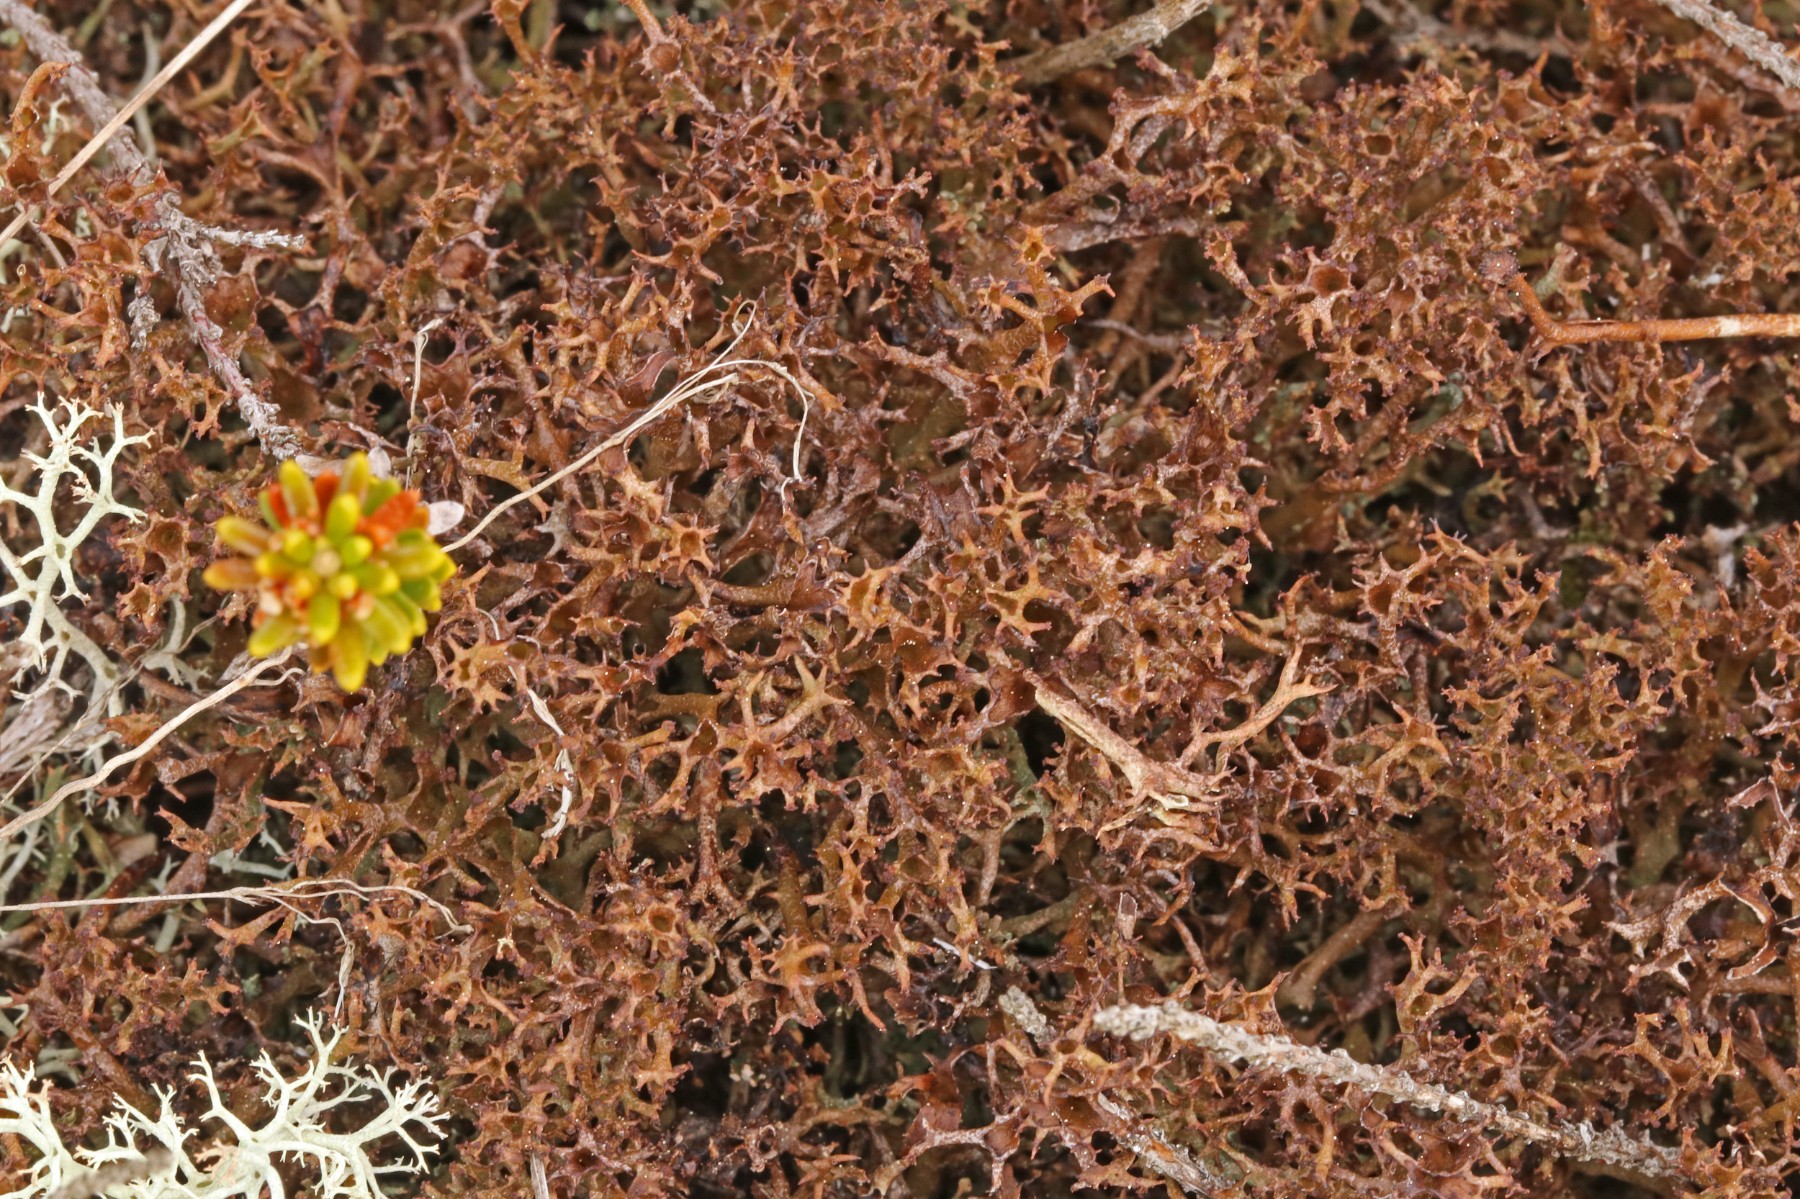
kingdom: Fungi
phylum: Ascomycota
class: Lecanoromycetes
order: Lecanorales
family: Cladoniaceae
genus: Cladonia
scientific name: Cladonia crispata
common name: takket bægerlav
